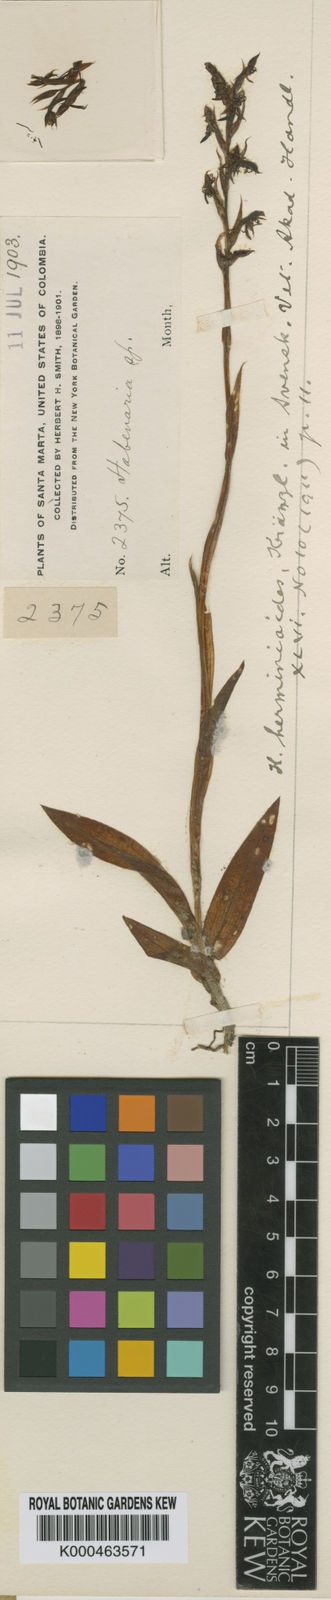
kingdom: Plantae
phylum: Tracheophyta
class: Liliopsida
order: Asparagales
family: Orchidaceae
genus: Habenaria
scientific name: Habenaria herminioides
